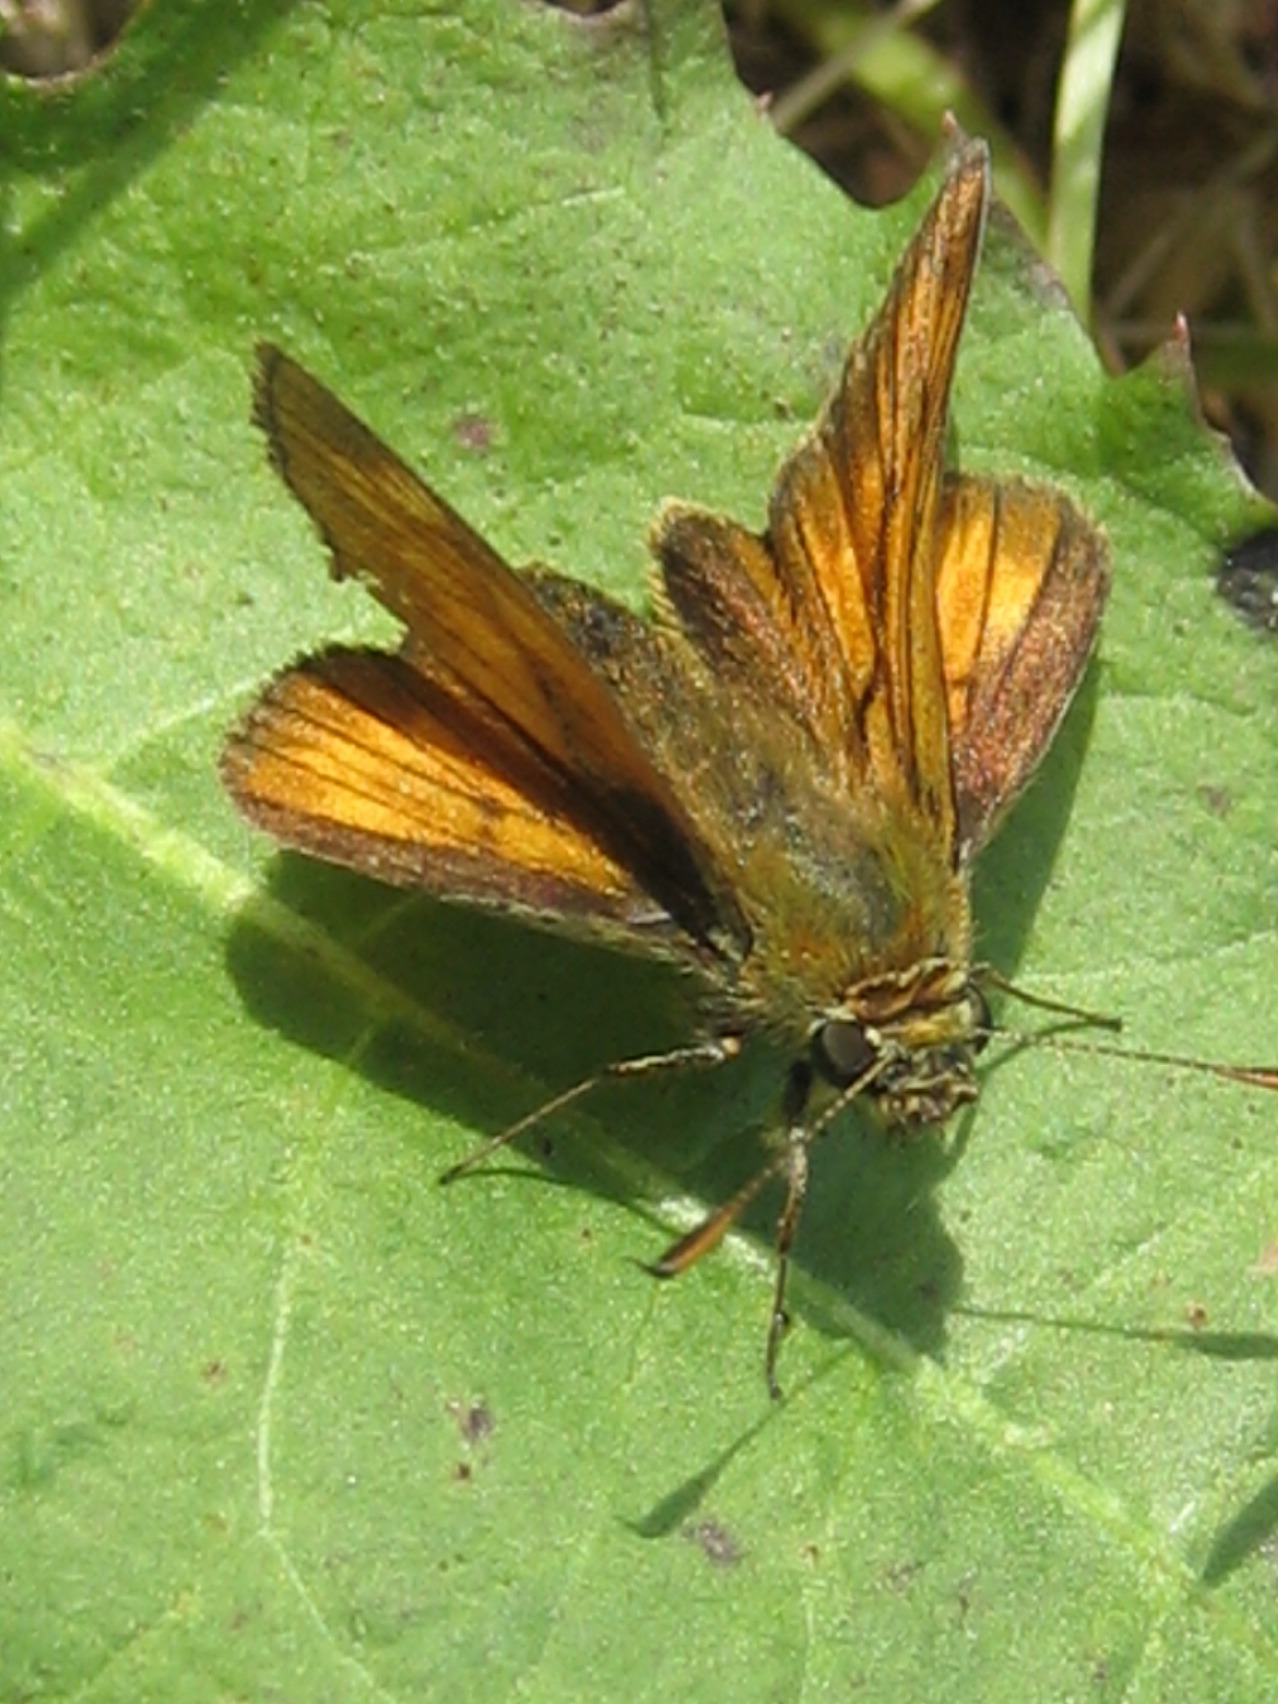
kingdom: Animalia
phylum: Arthropoda
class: Insecta
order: Lepidoptera
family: Hesperiidae
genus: Ochlodes
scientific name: Ochlodes venata
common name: Stor bredpande
